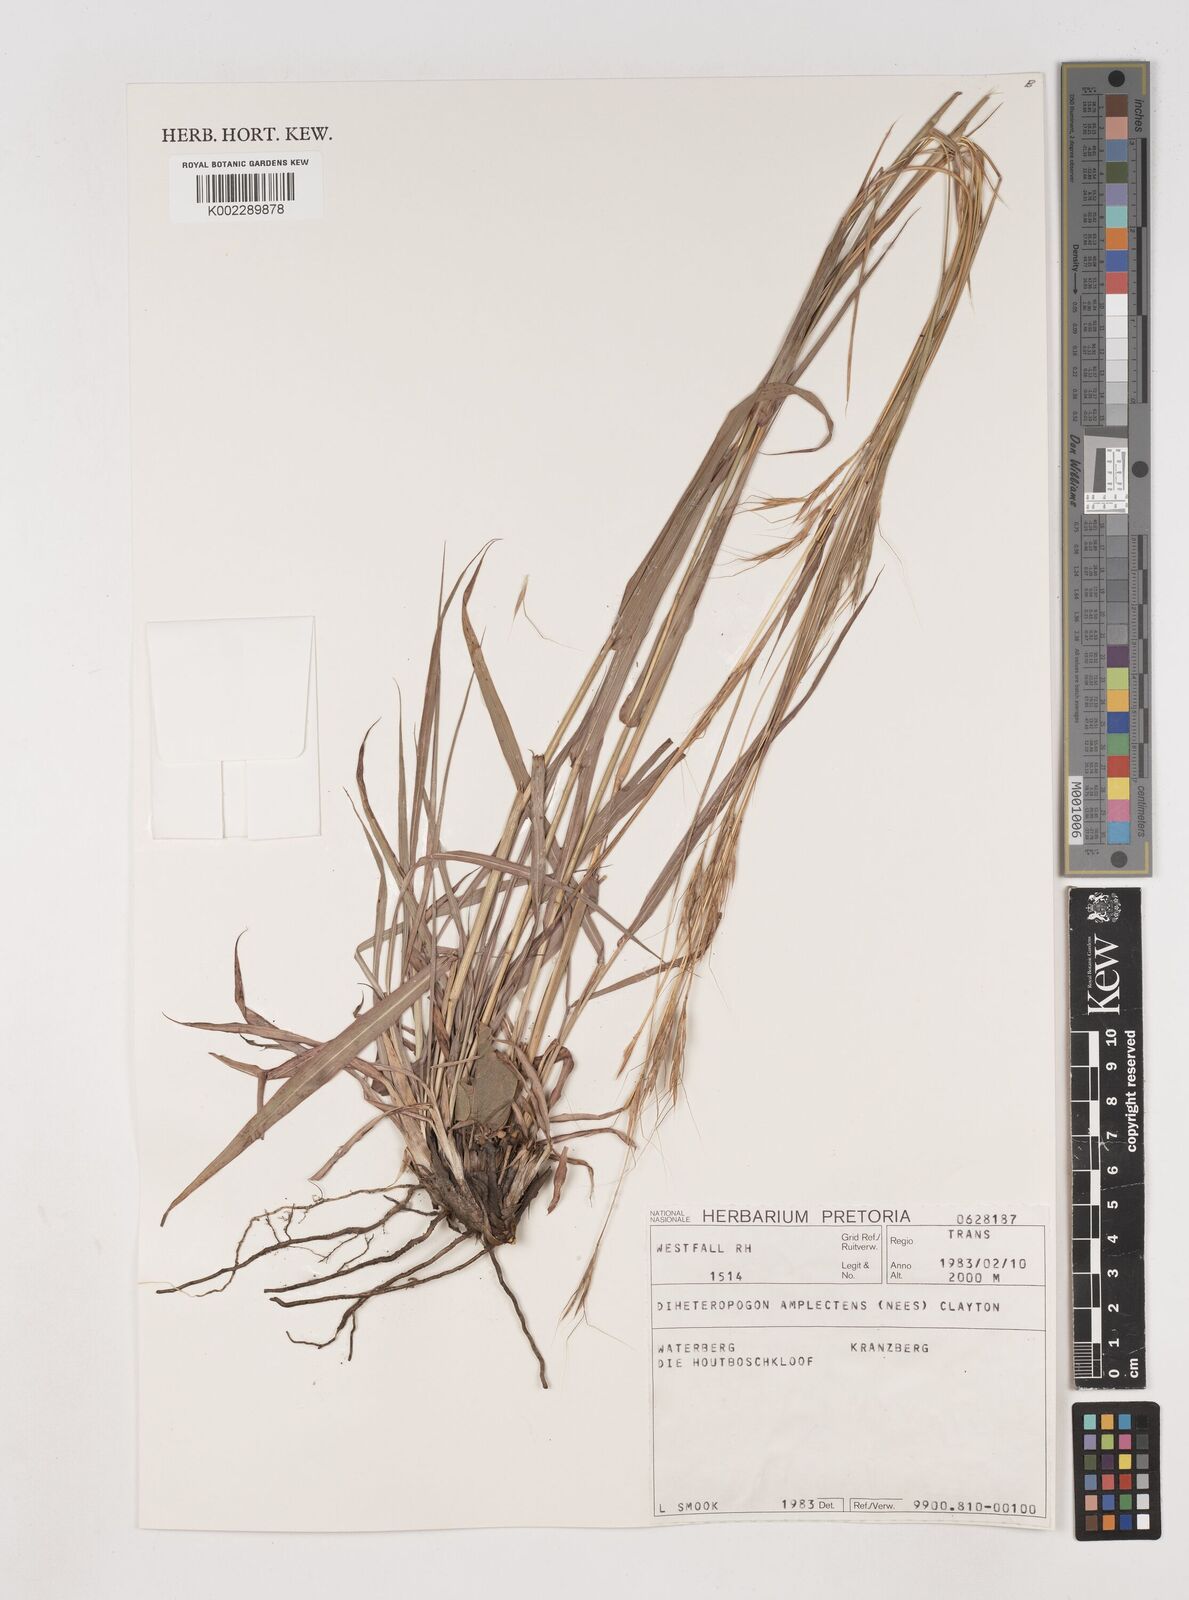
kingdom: Plantae
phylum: Tracheophyta
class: Liliopsida
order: Poales
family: Poaceae
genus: Diheteropogon
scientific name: Diheteropogon amplectens
